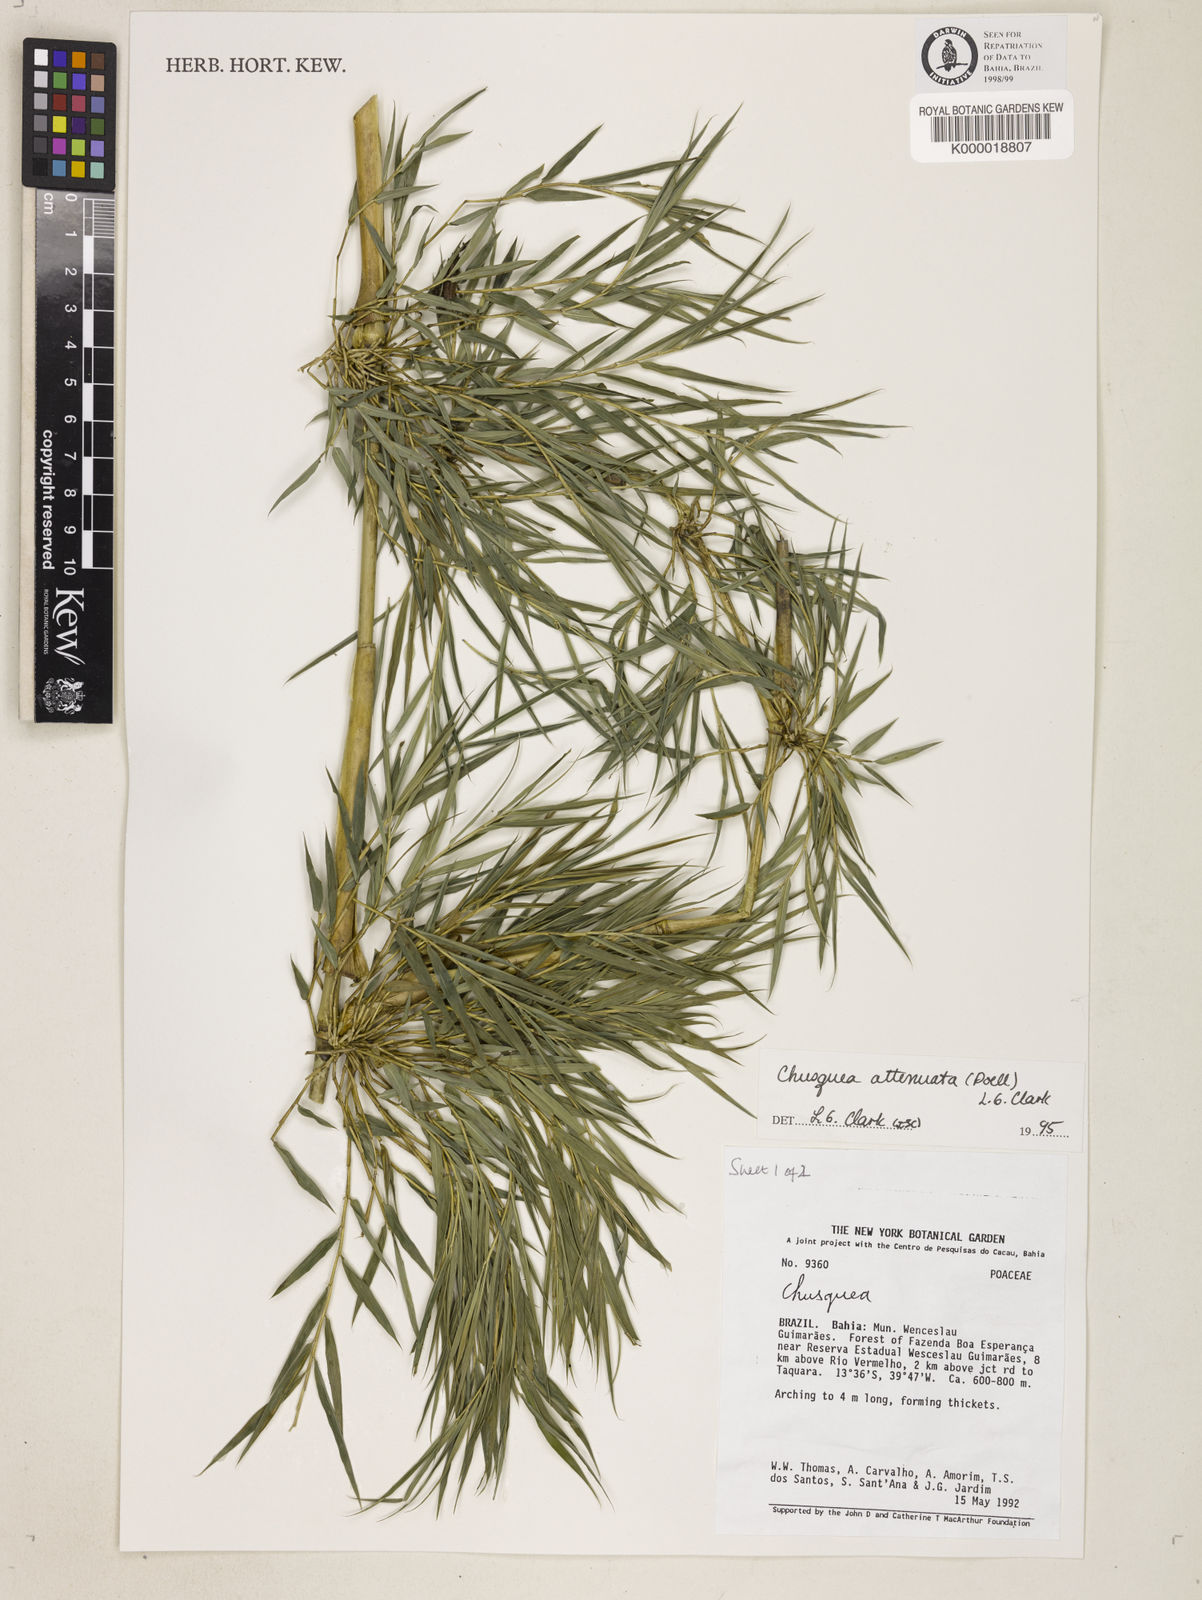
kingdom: Plantae
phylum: Tracheophyta
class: Liliopsida
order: Poales
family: Poaceae
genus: Chusquea
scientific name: Chusquea parviligulata
